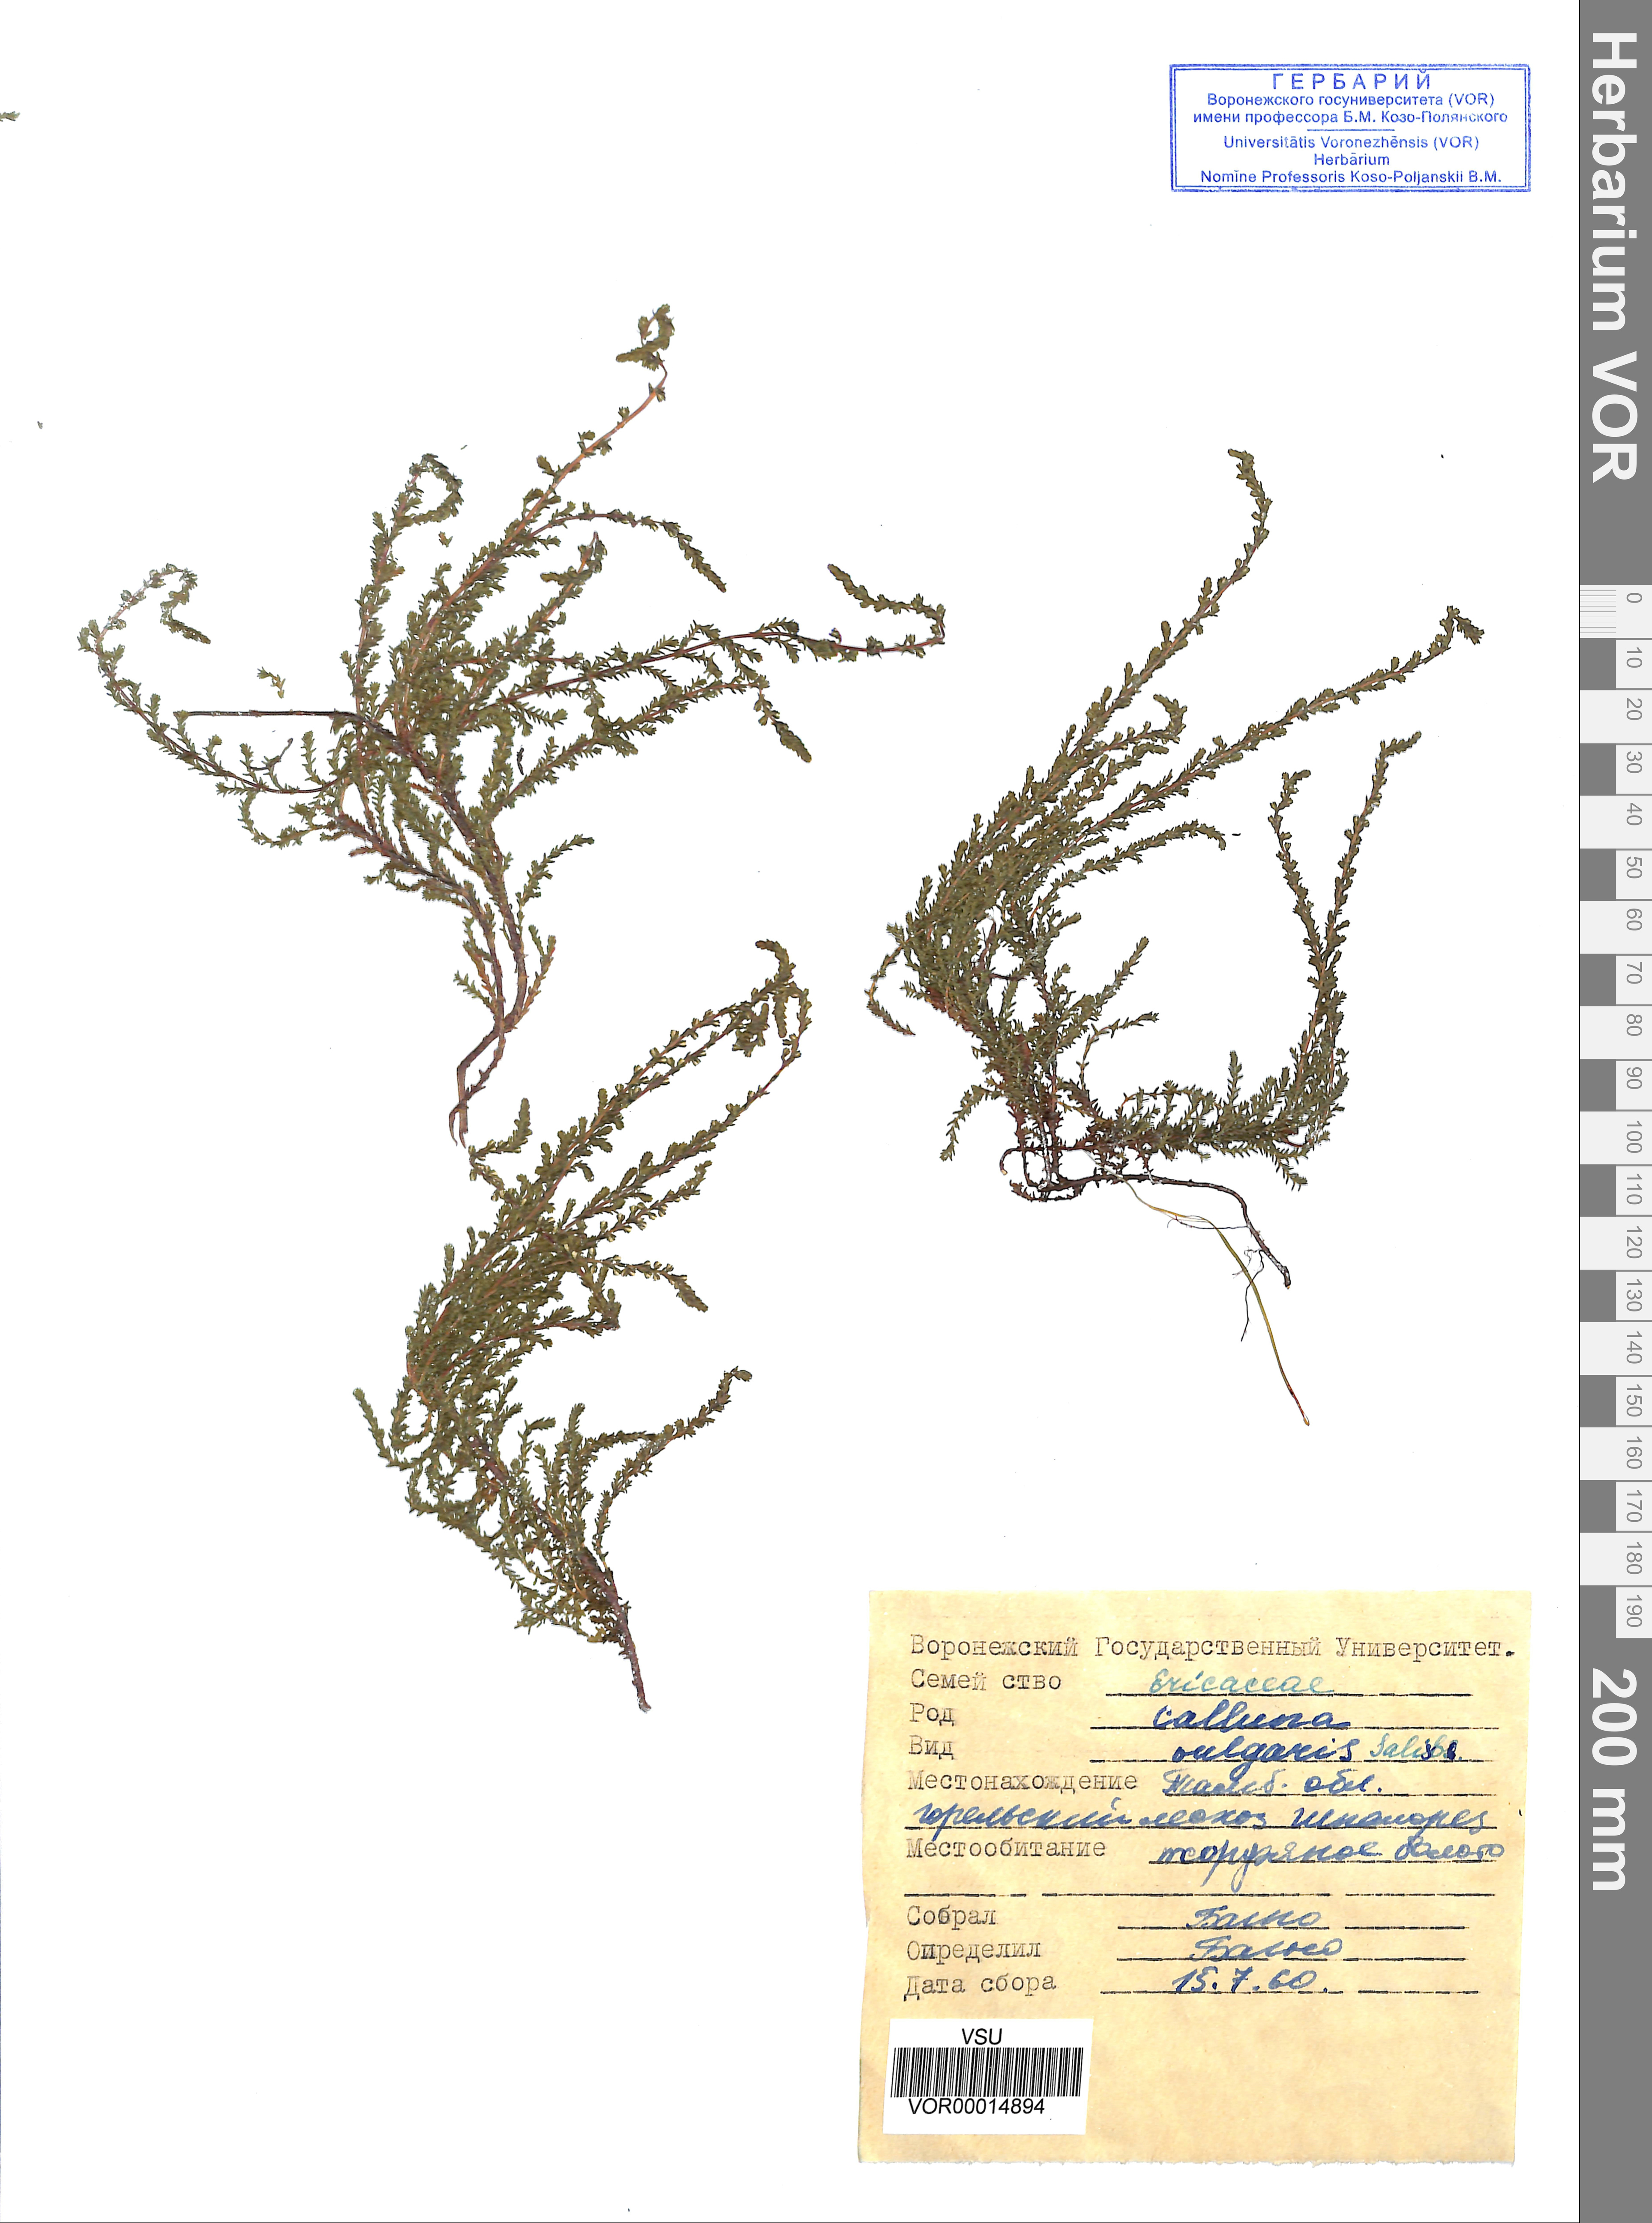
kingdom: Plantae
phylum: Tracheophyta
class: Magnoliopsida
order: Ericales
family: Ericaceae
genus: Calluna
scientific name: Calluna vulgaris
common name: Heather
